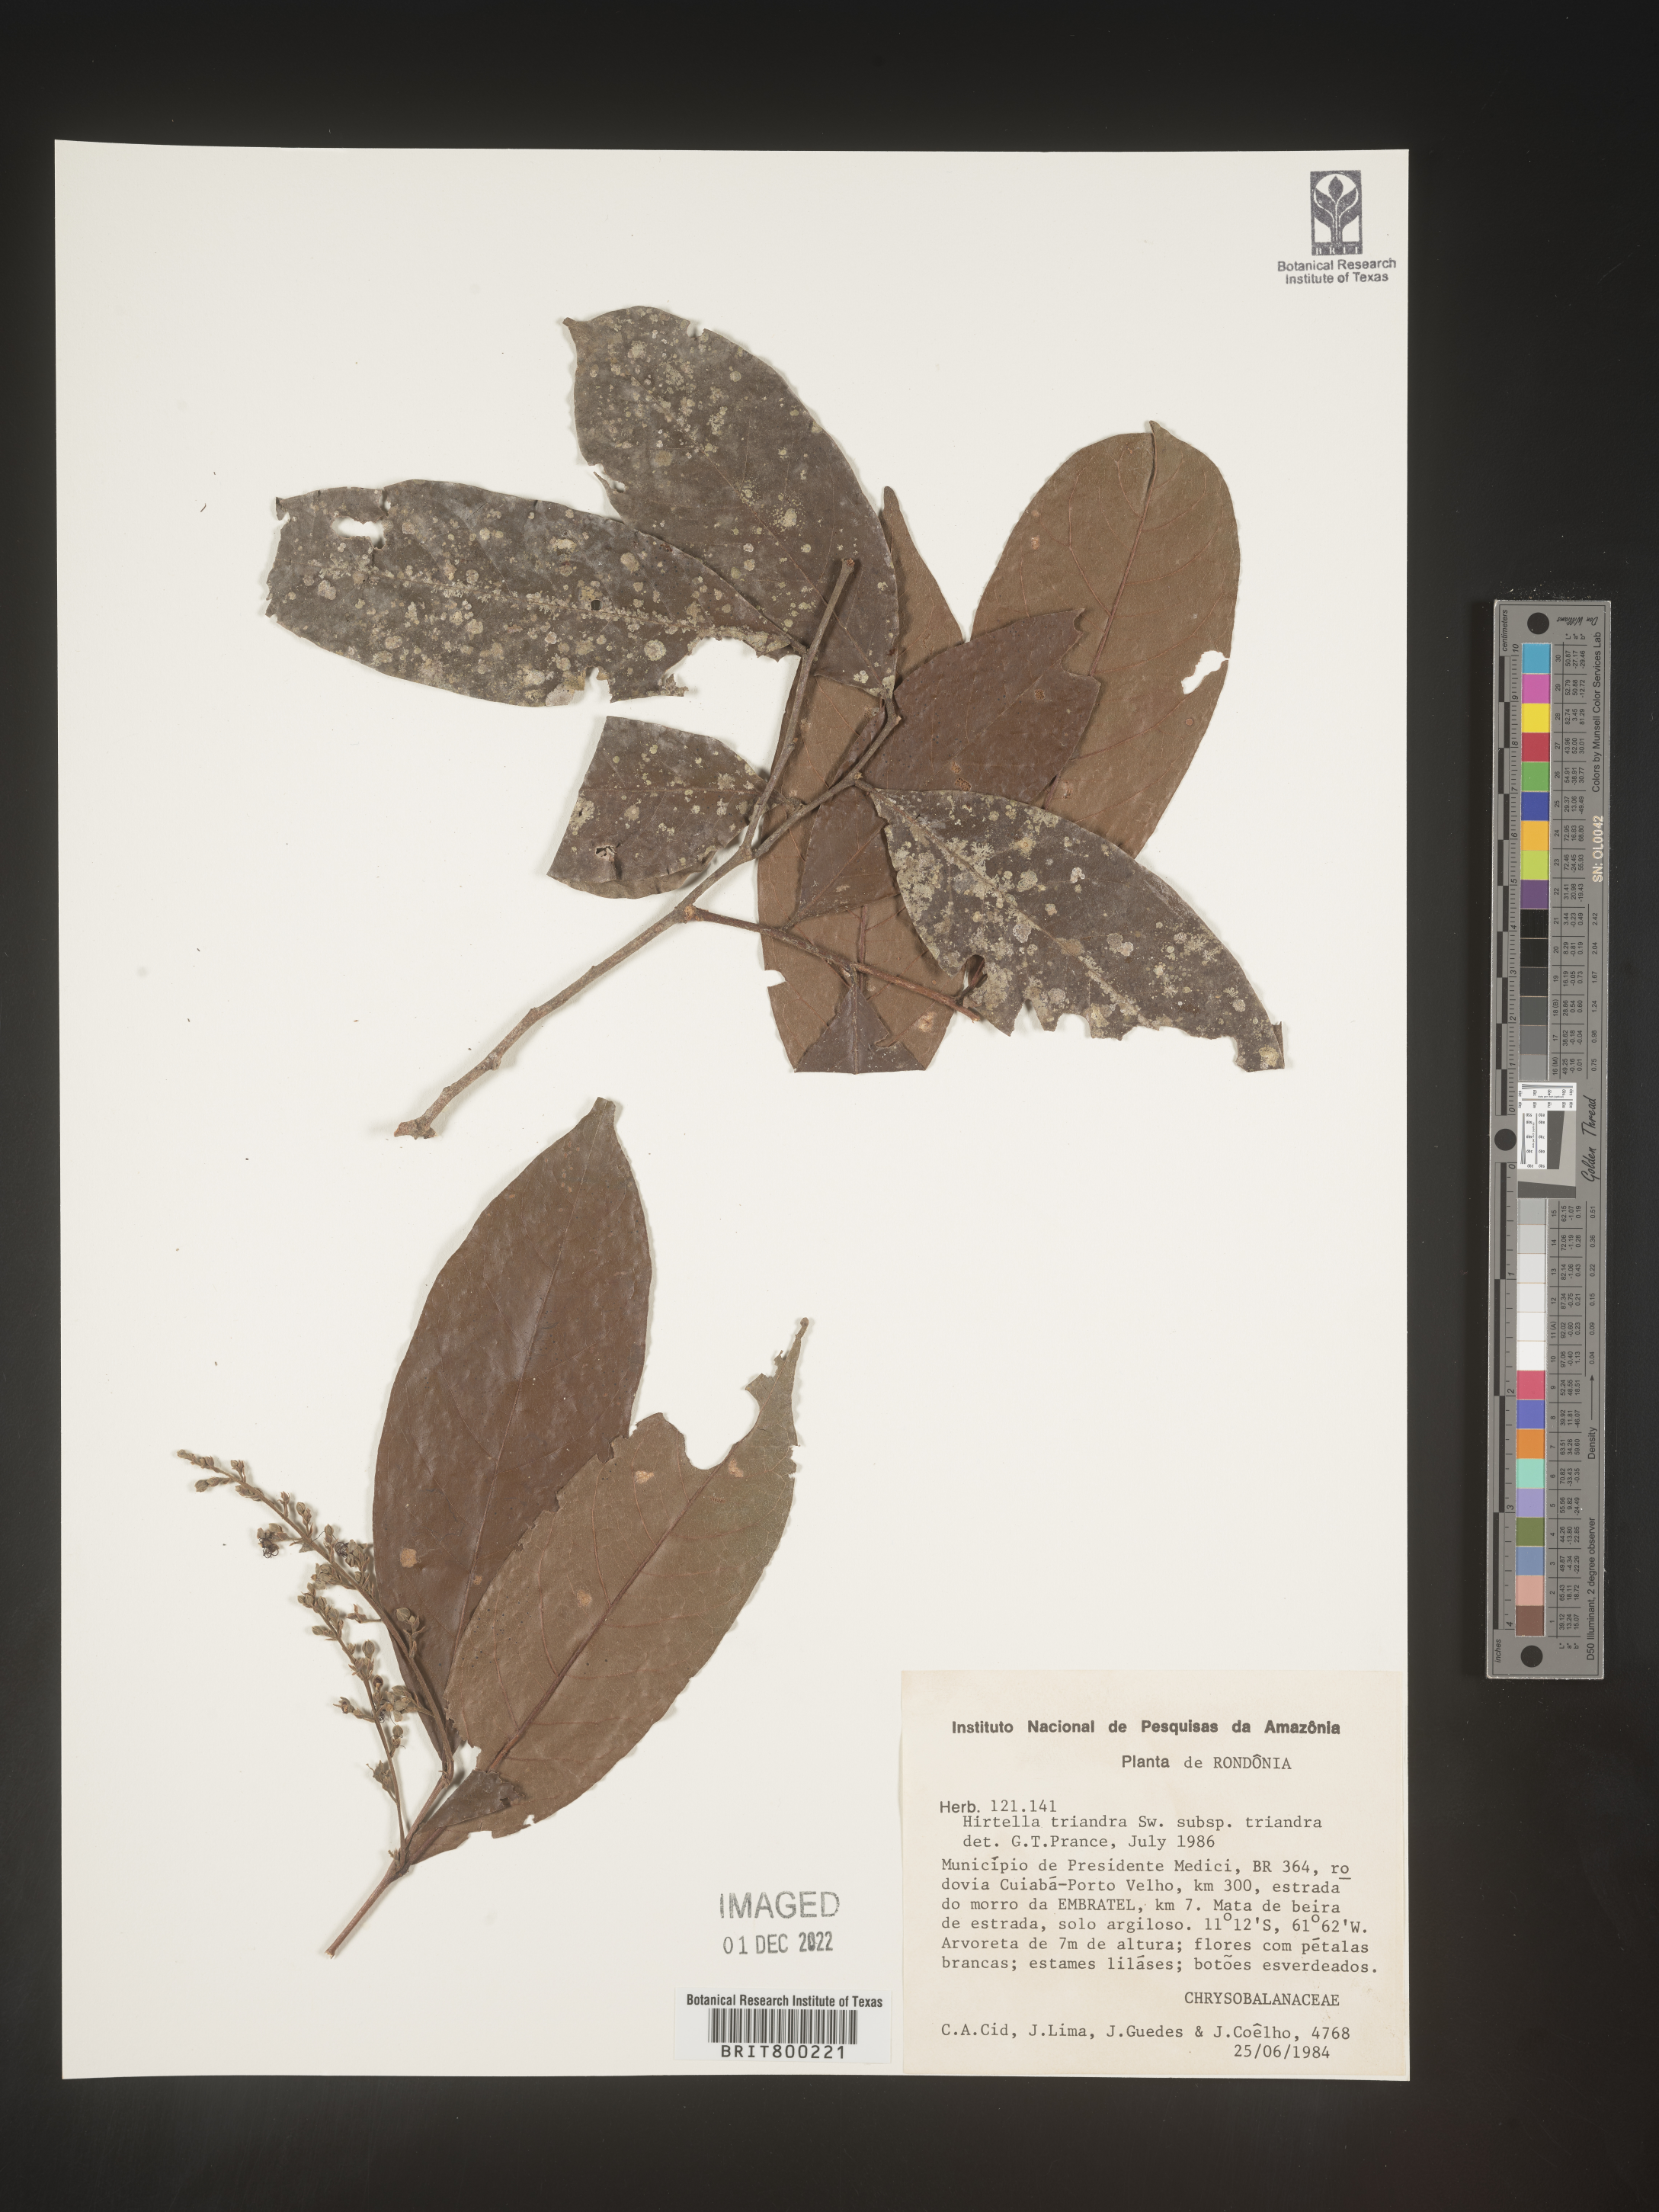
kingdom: Plantae
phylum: Tracheophyta
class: Magnoliopsida
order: Malpighiales
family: Chrysobalanaceae
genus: Hirtella
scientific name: Hirtella
